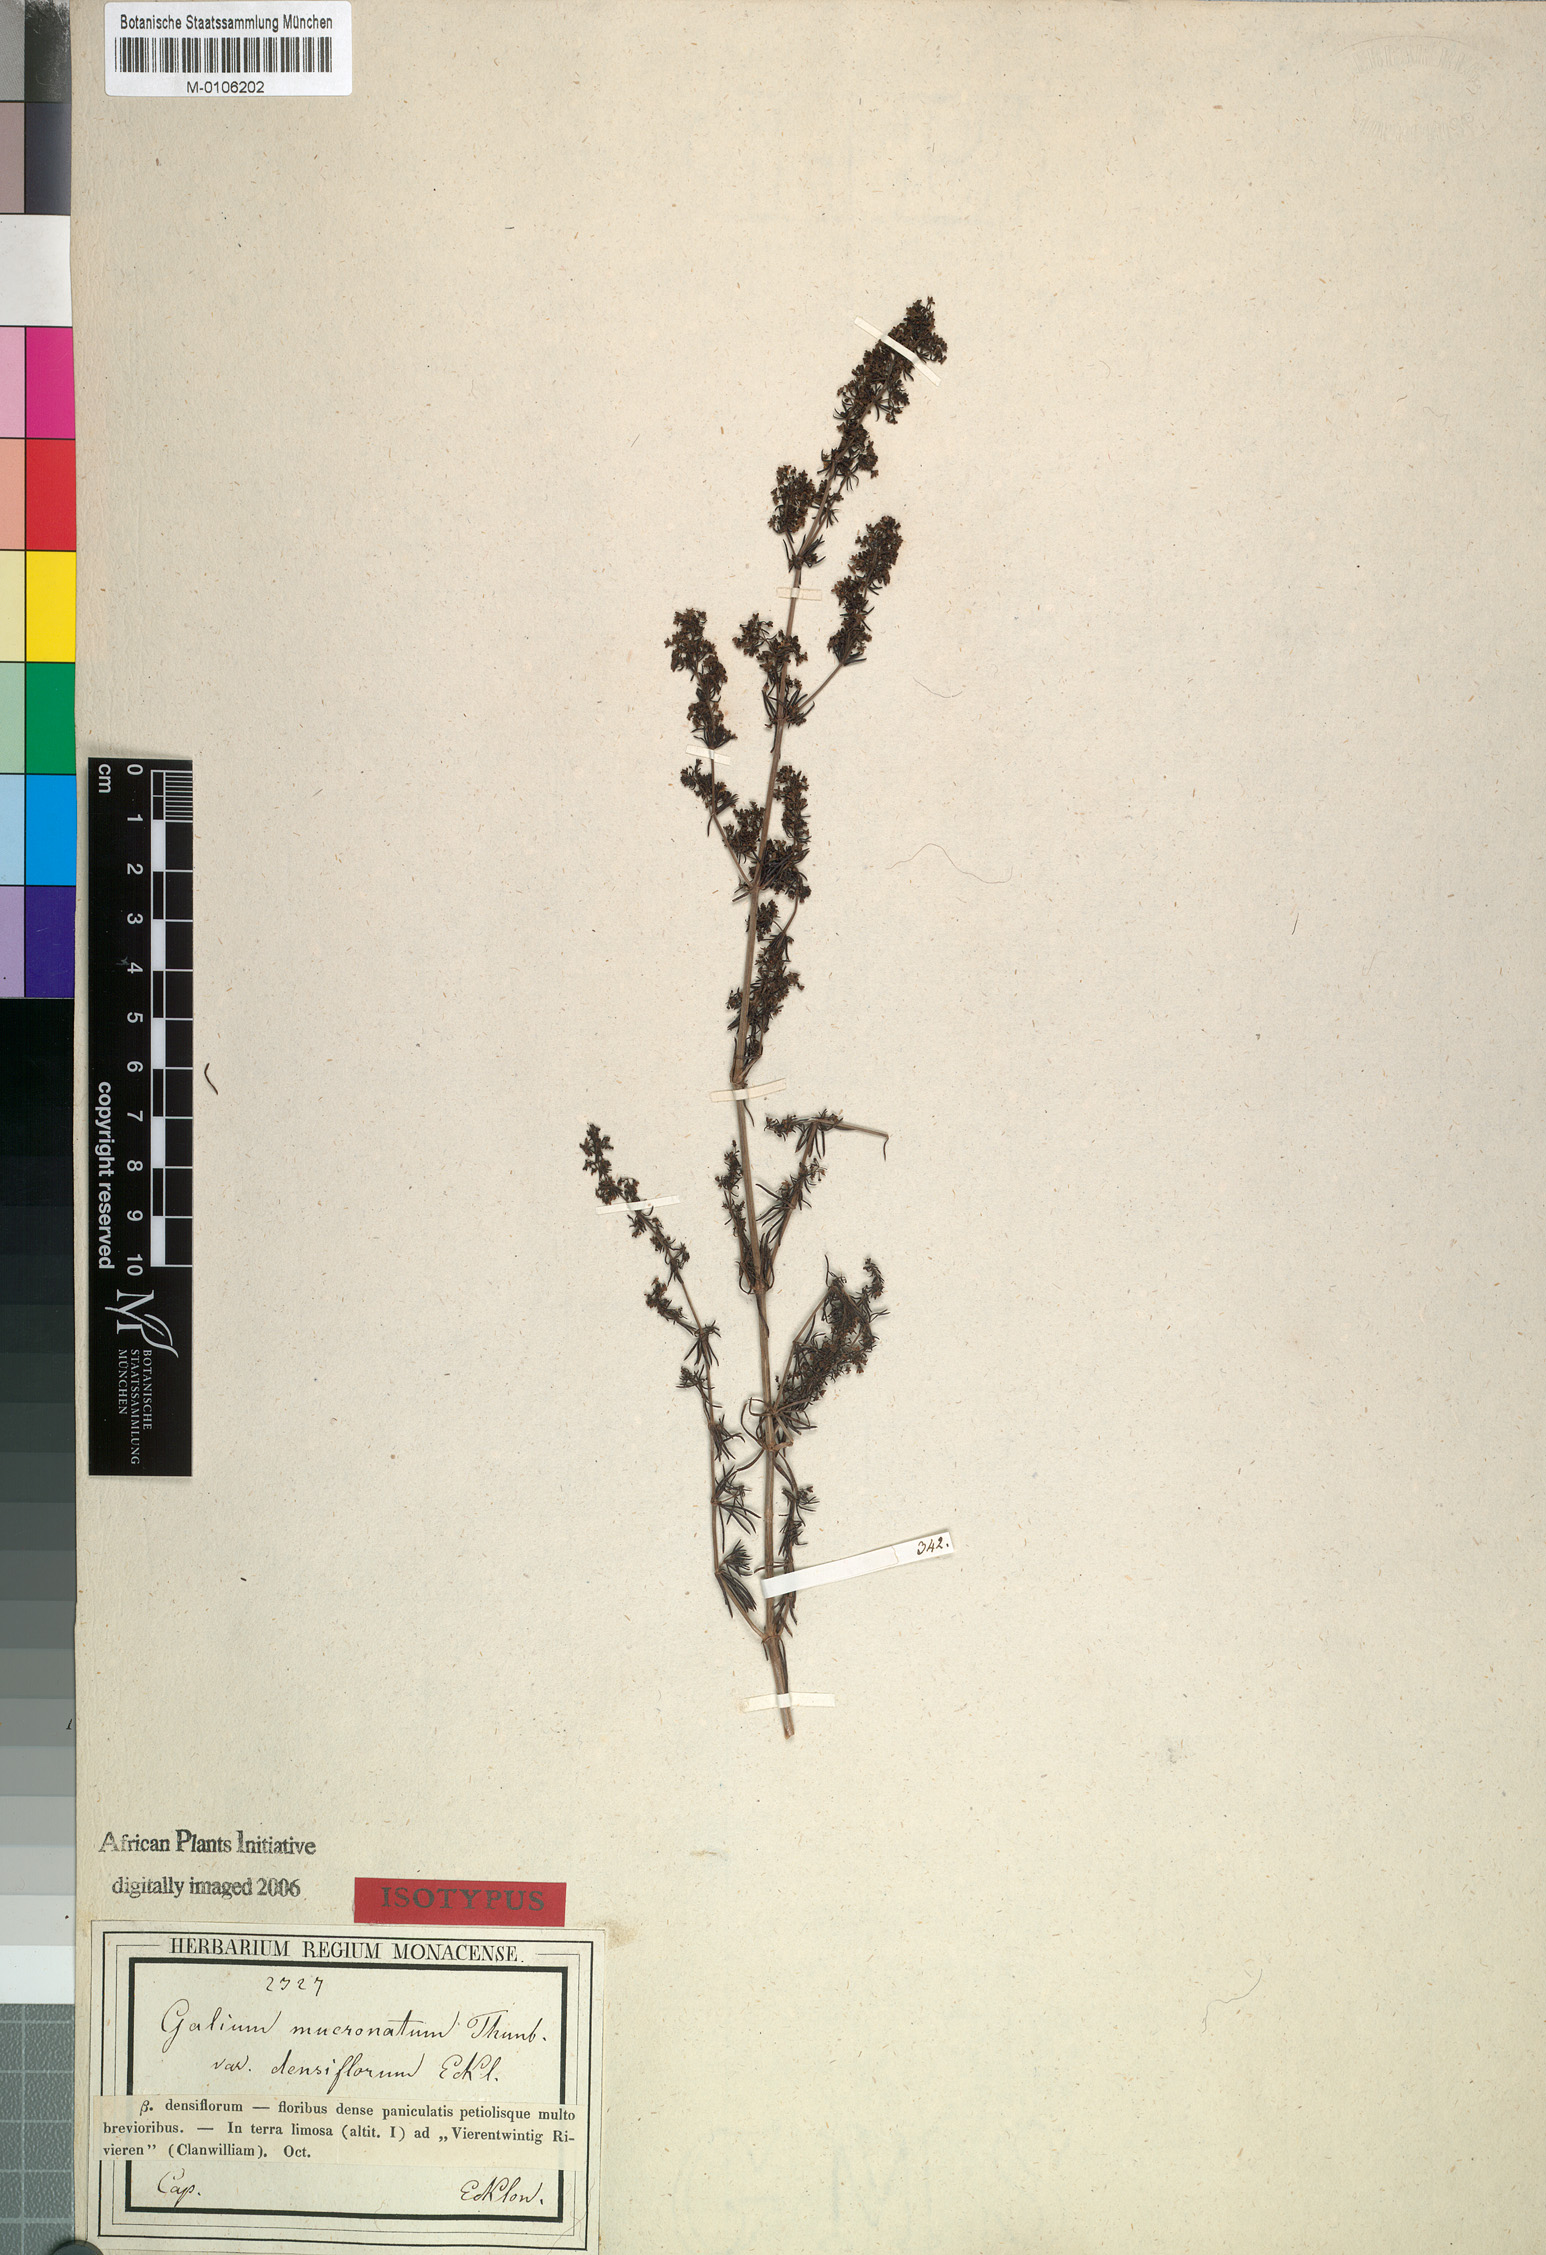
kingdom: Plantae
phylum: Tracheophyta
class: Magnoliopsida
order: Gentianales
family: Rubiaceae
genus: Galium
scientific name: Galium capense
